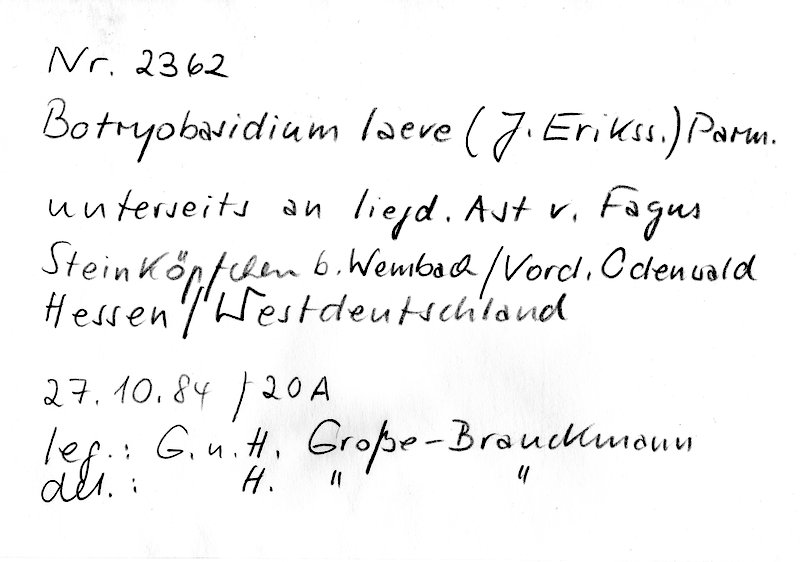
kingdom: Fungi
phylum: Basidiomycota
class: Agaricomycetes
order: Cantharellales
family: Botryobasidiaceae
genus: Botryobasidium
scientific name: Botryobasidium laeve
